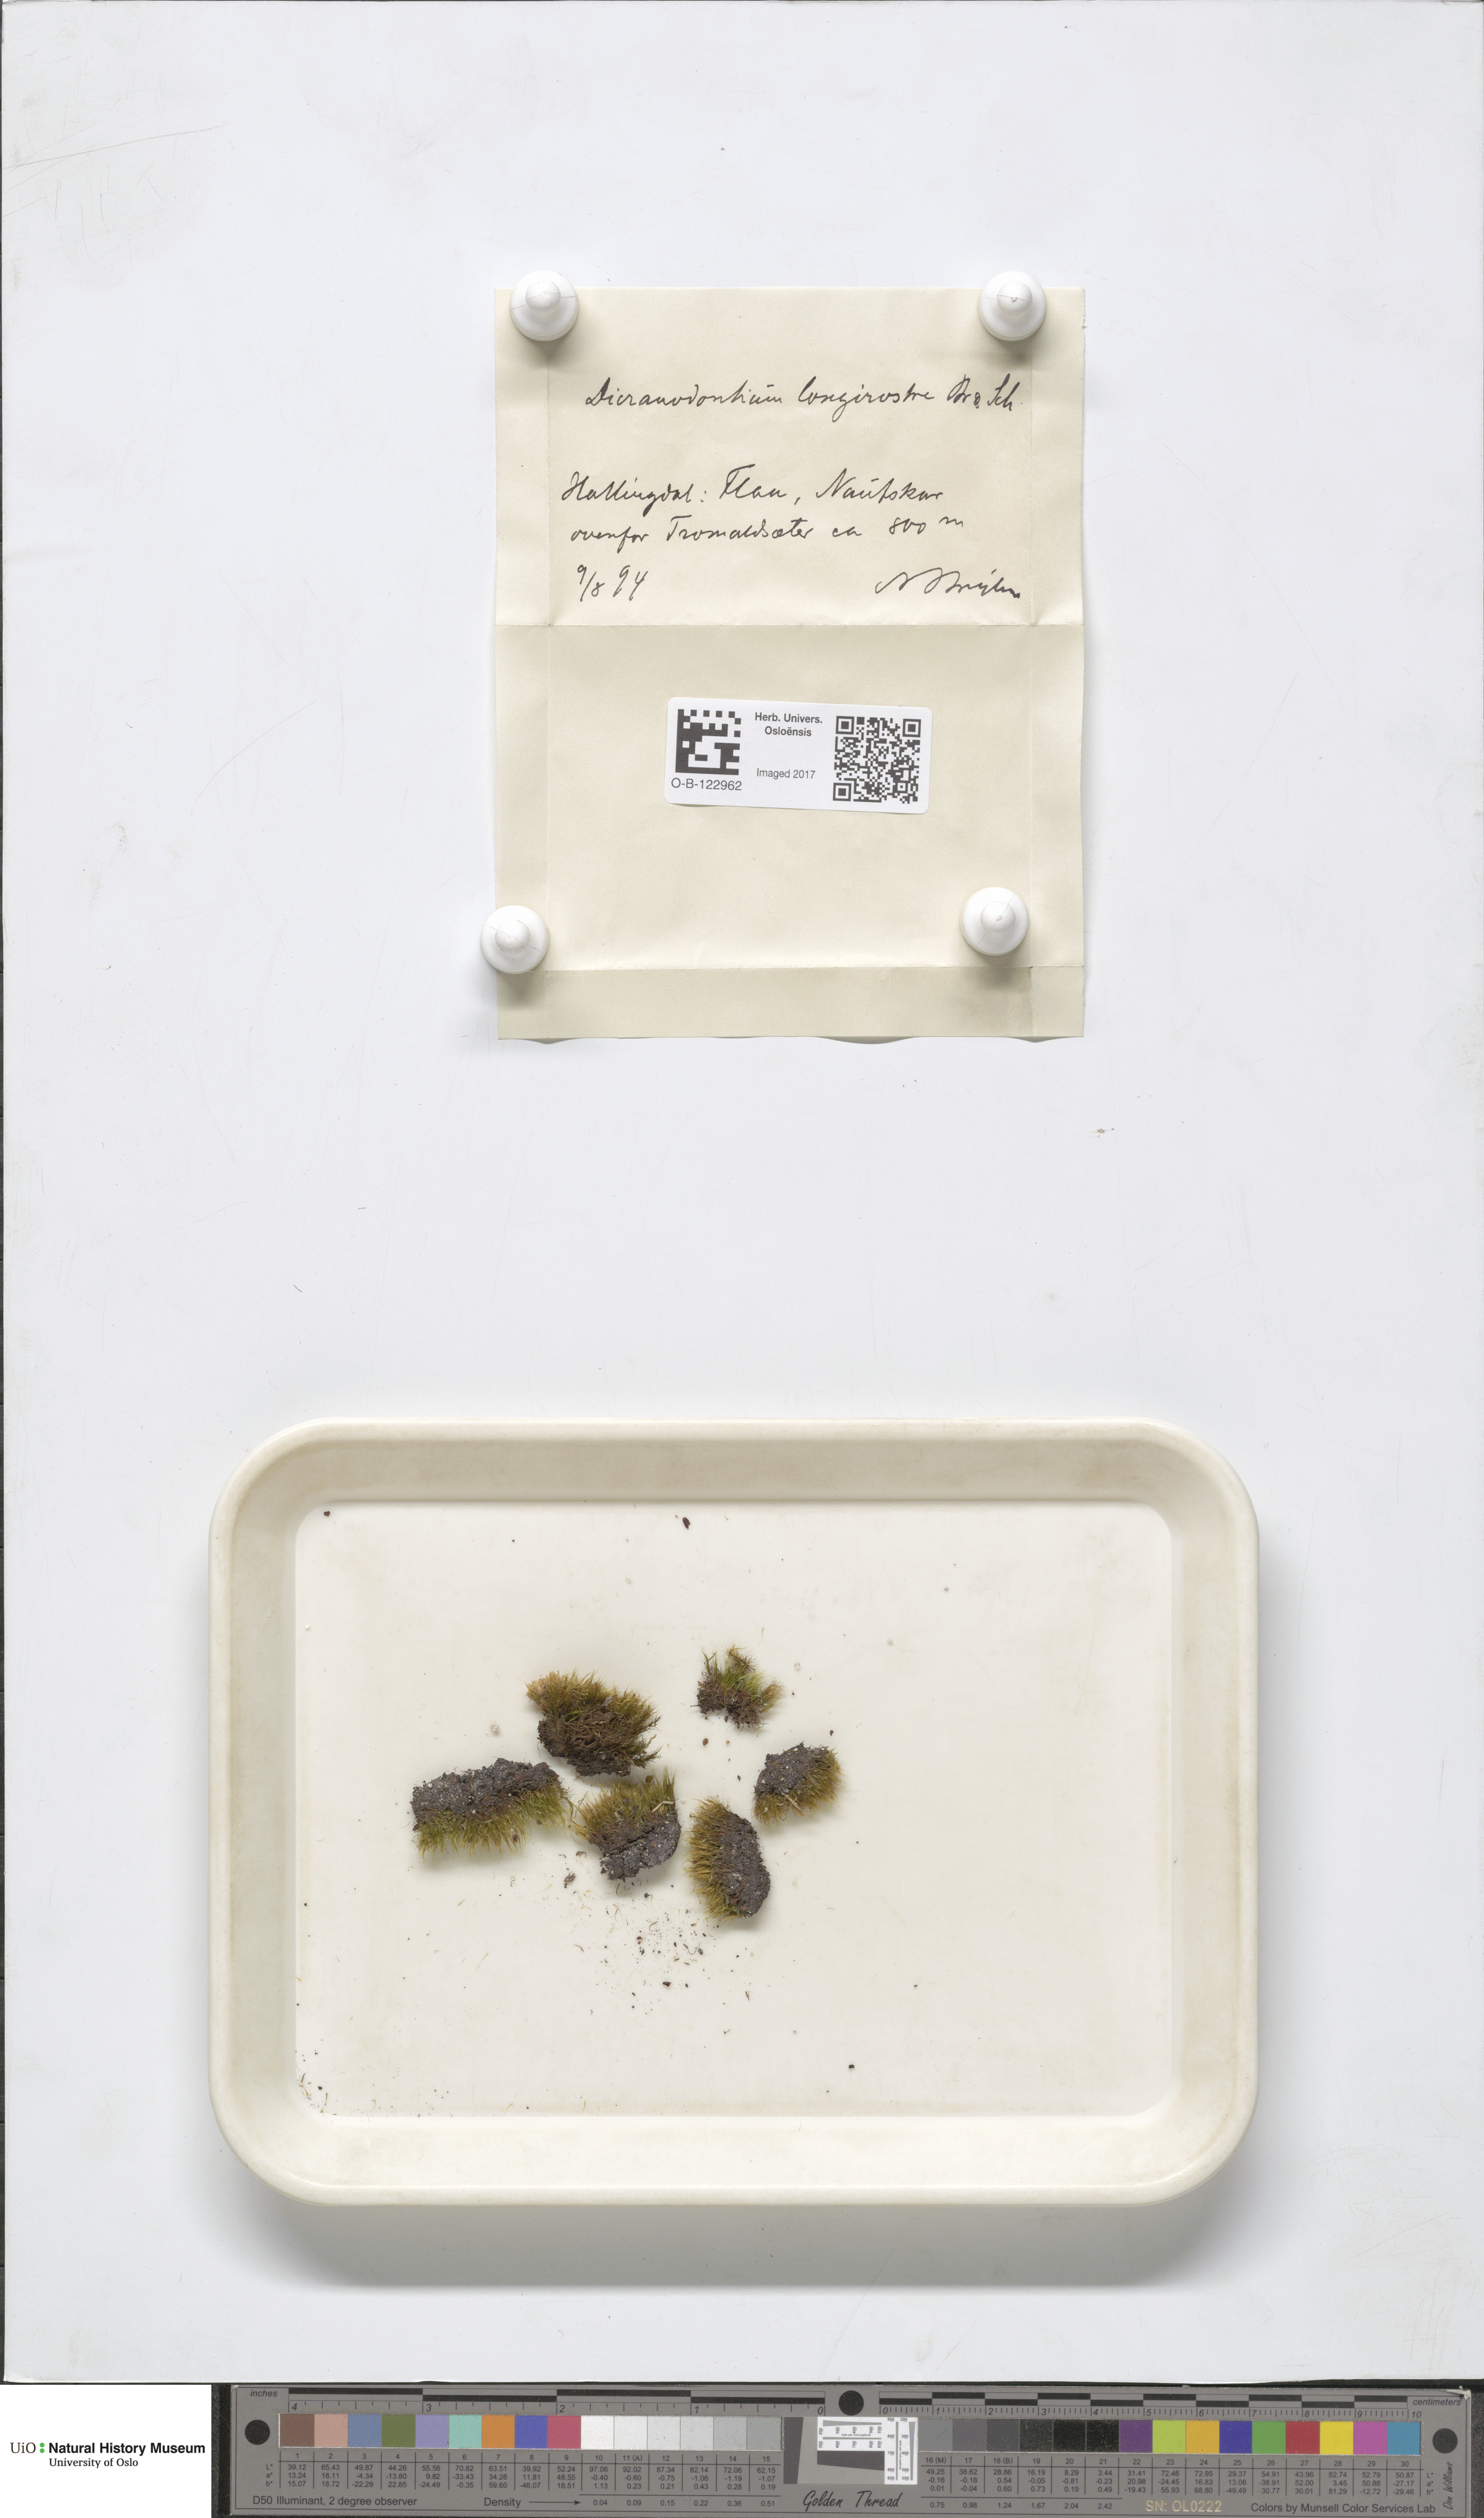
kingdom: Plantae
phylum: Bryophyta
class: Bryopsida
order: Dicranales
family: Leucobryaceae
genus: Dicranodontium
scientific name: Dicranodontium denudatum
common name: Beaked bow moss
